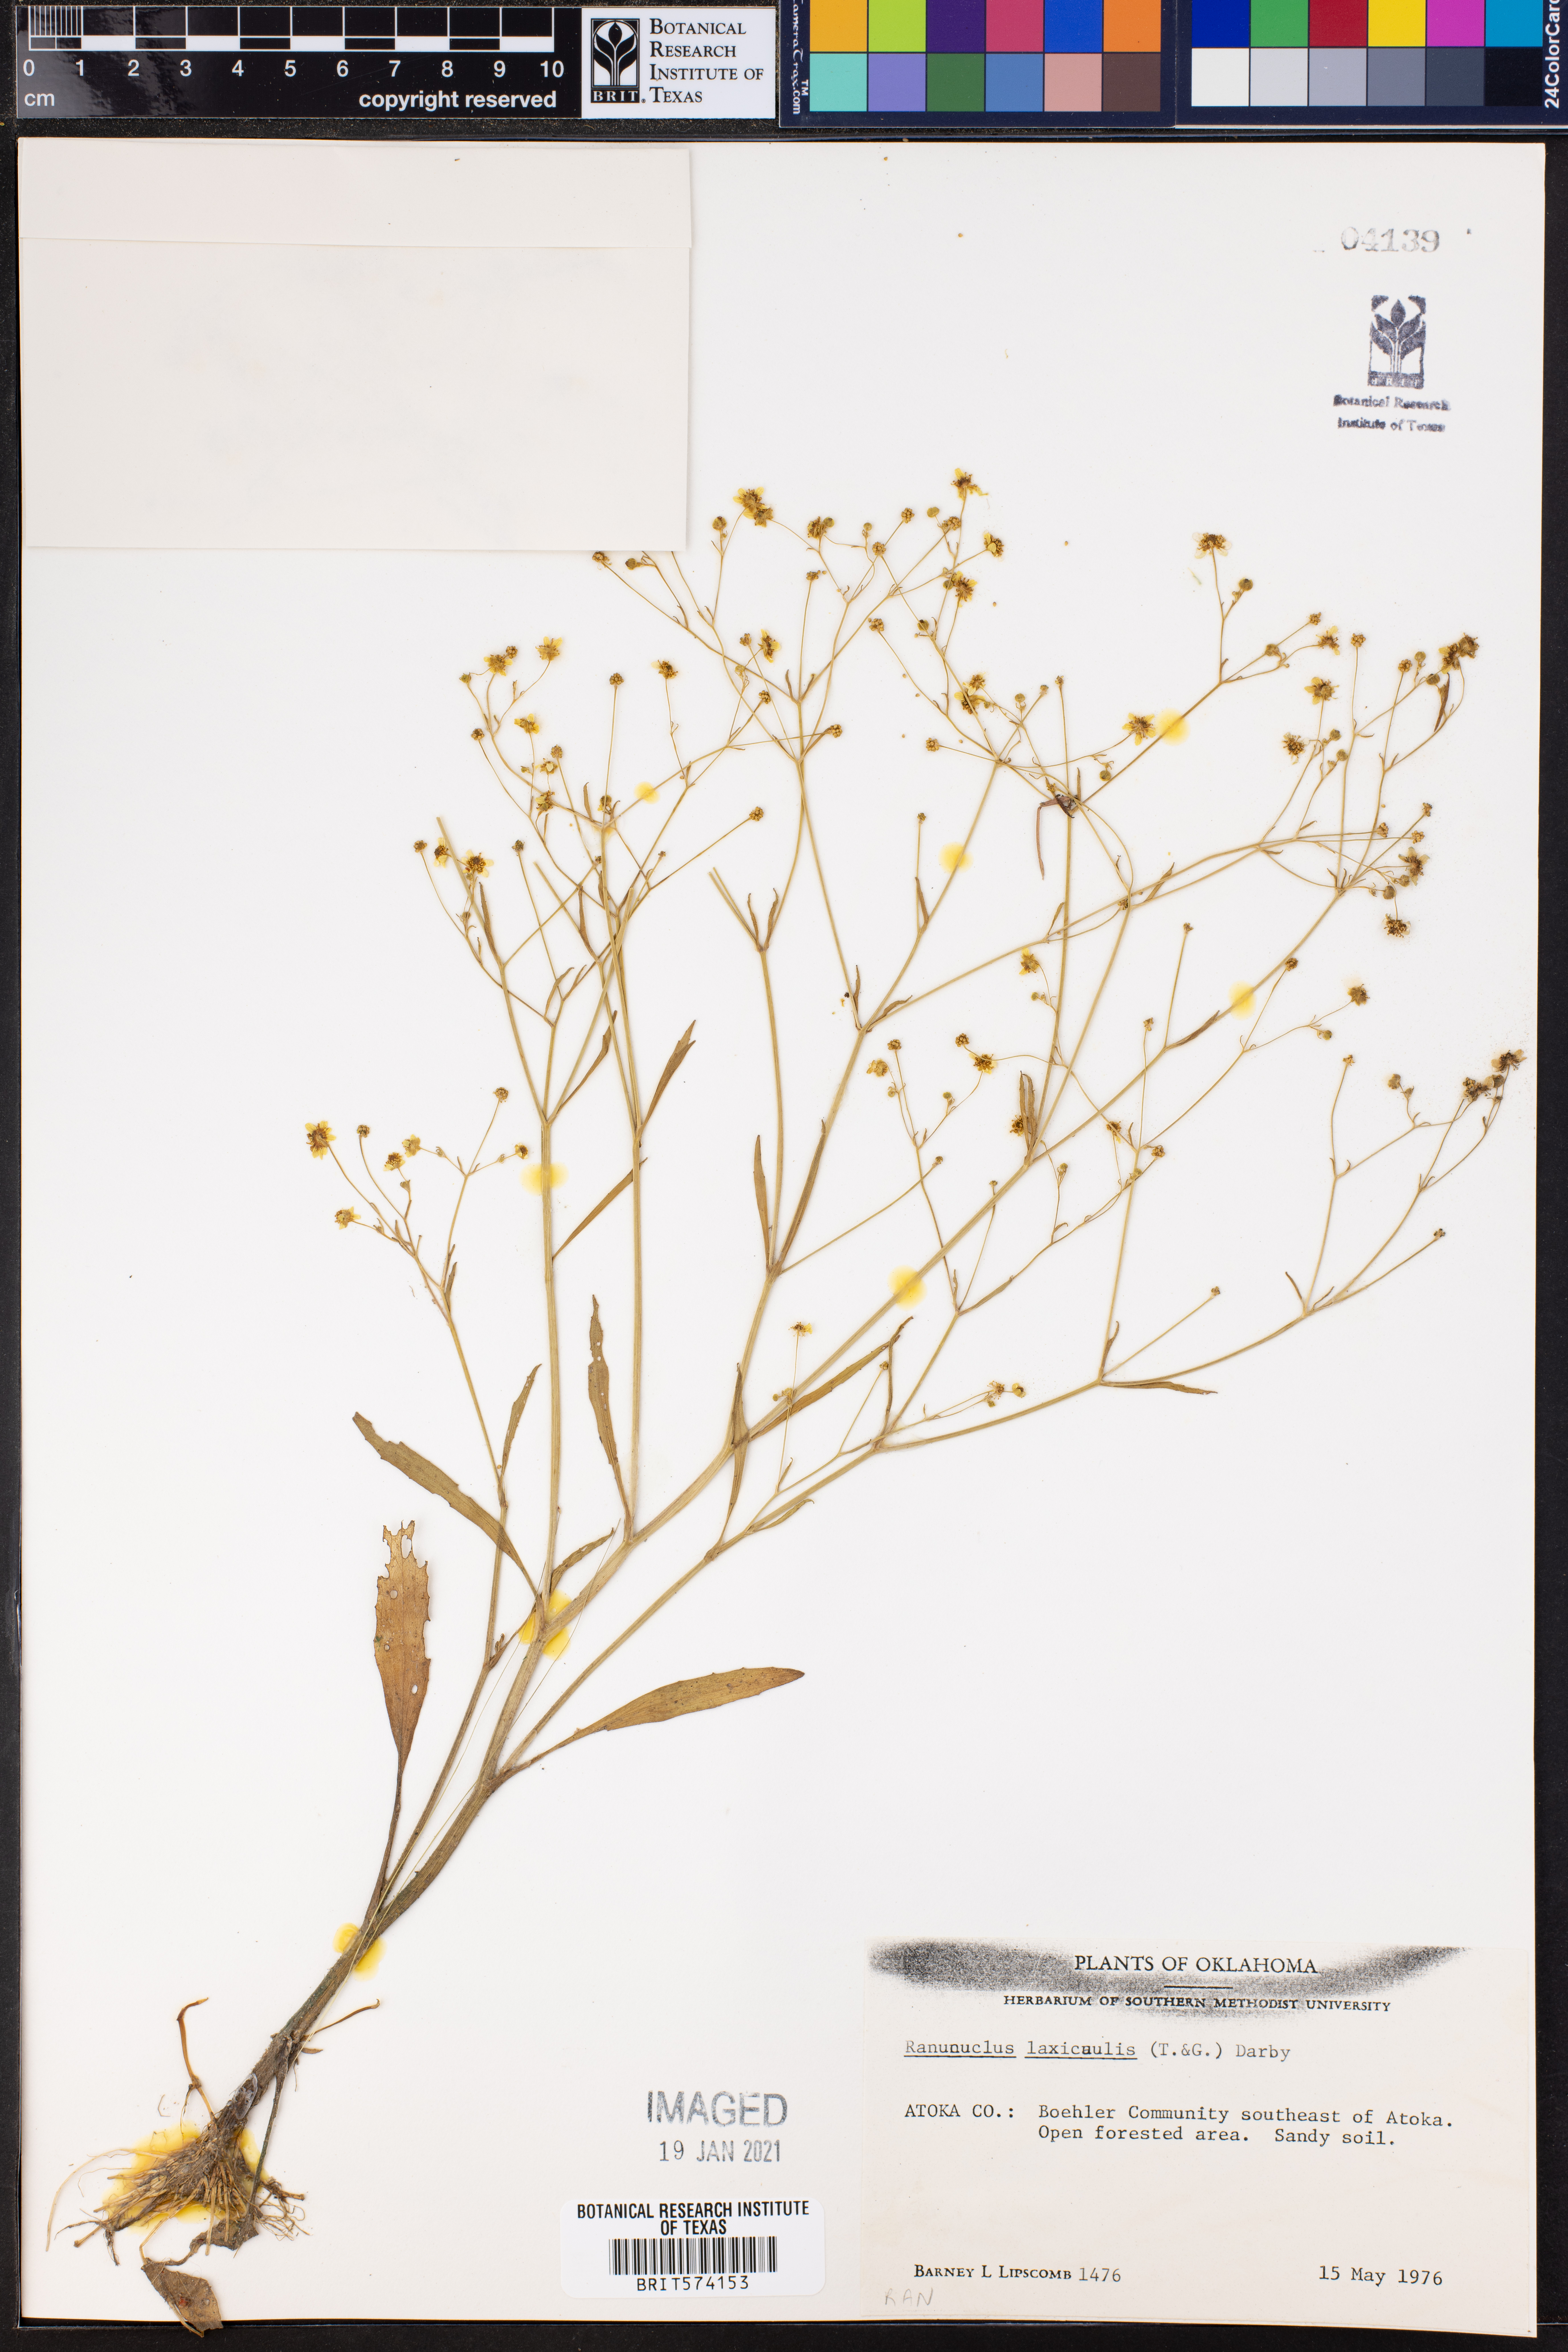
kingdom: Plantae
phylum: Tracheophyta
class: Magnoliopsida
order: Ranunculales
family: Ranunculaceae
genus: Ranunculus
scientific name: Ranunculus laxicaulis
